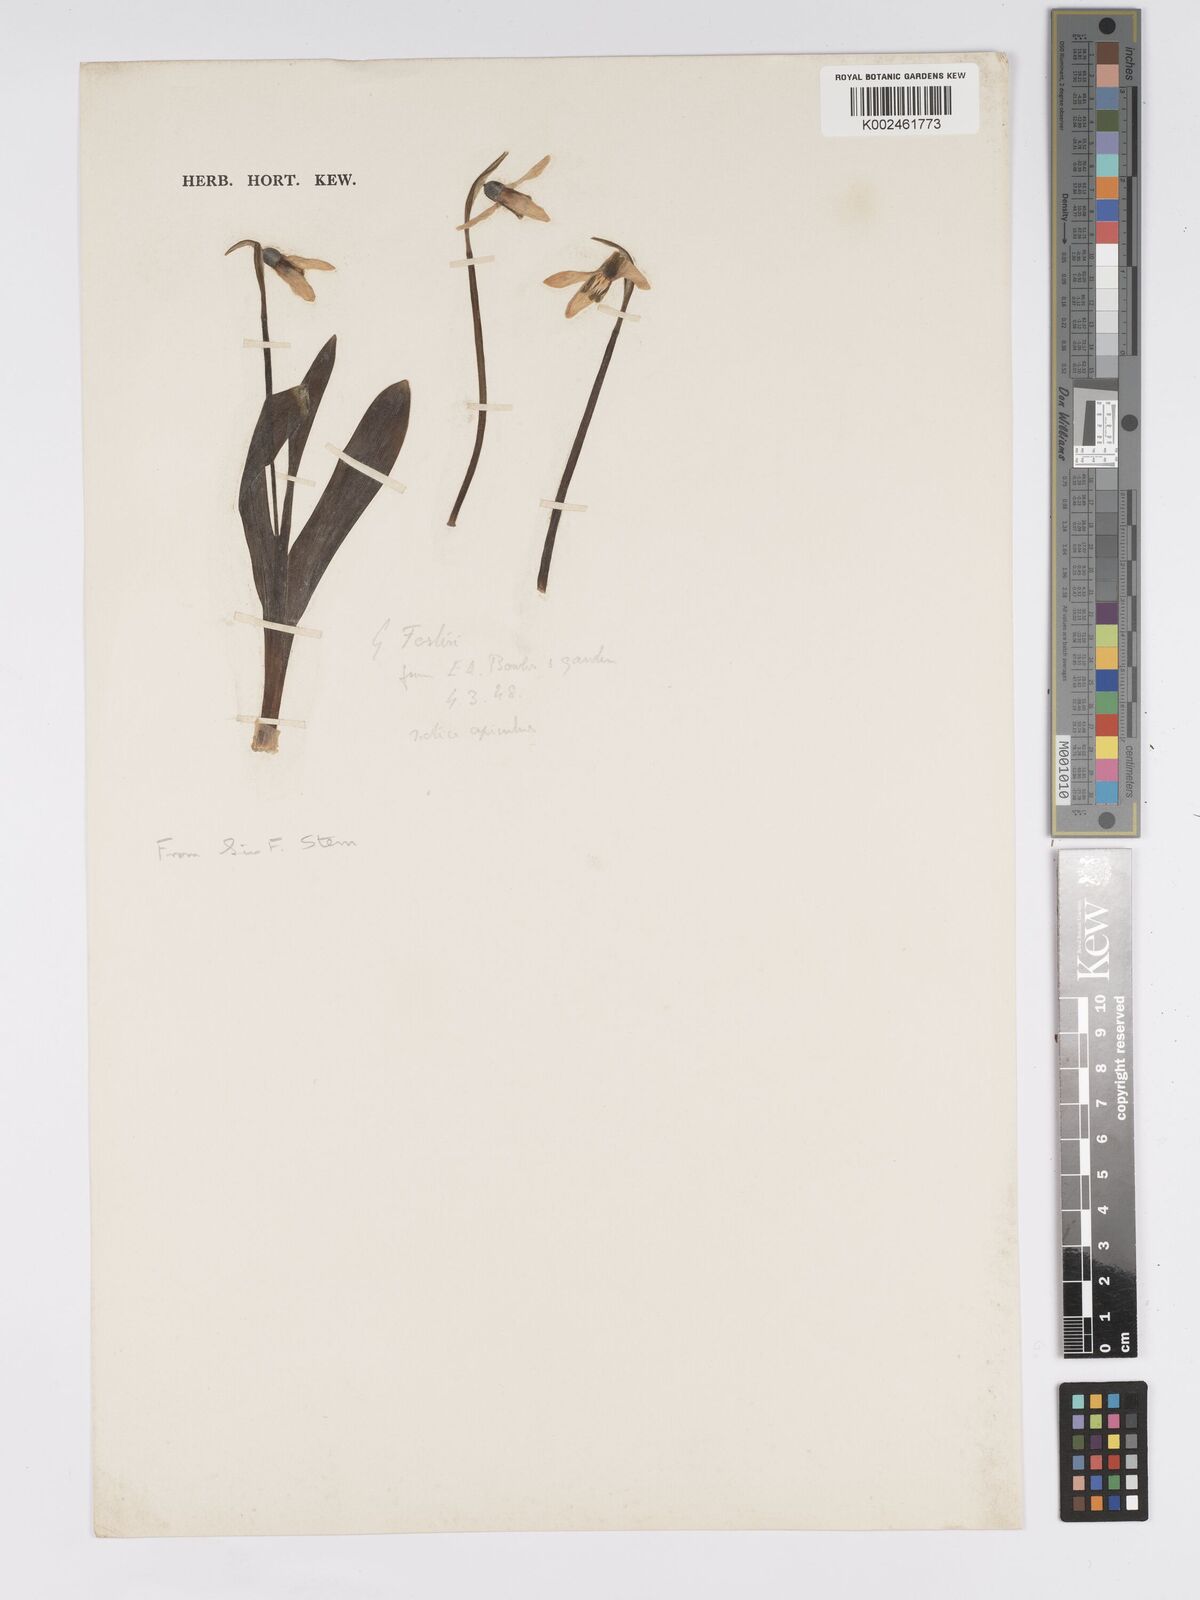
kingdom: Plantae
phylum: Tracheophyta
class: Liliopsida
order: Asparagales
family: Amaryllidaceae
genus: Galanthus
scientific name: Galanthus
